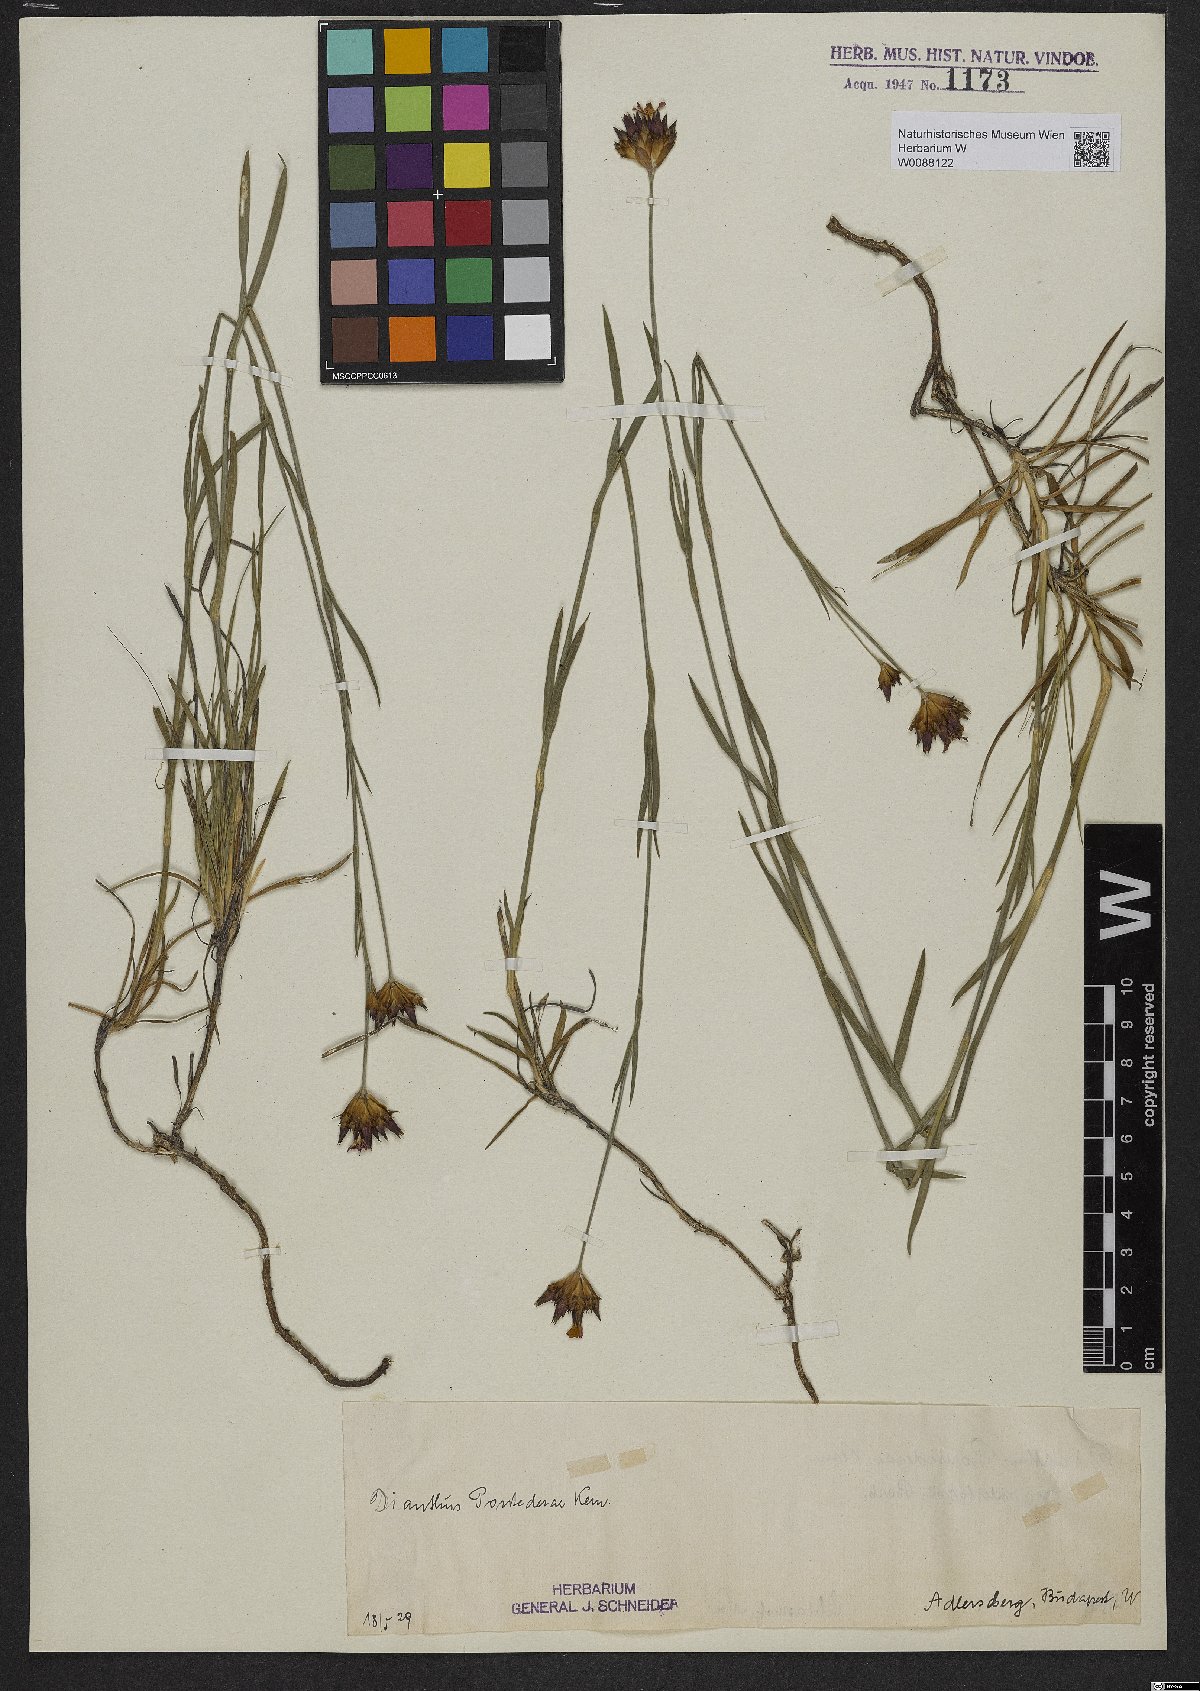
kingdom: Plantae
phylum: Tracheophyta
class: Magnoliopsida
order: Caryophyllales
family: Caryophyllaceae
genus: Dianthus
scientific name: Dianthus pontederae
